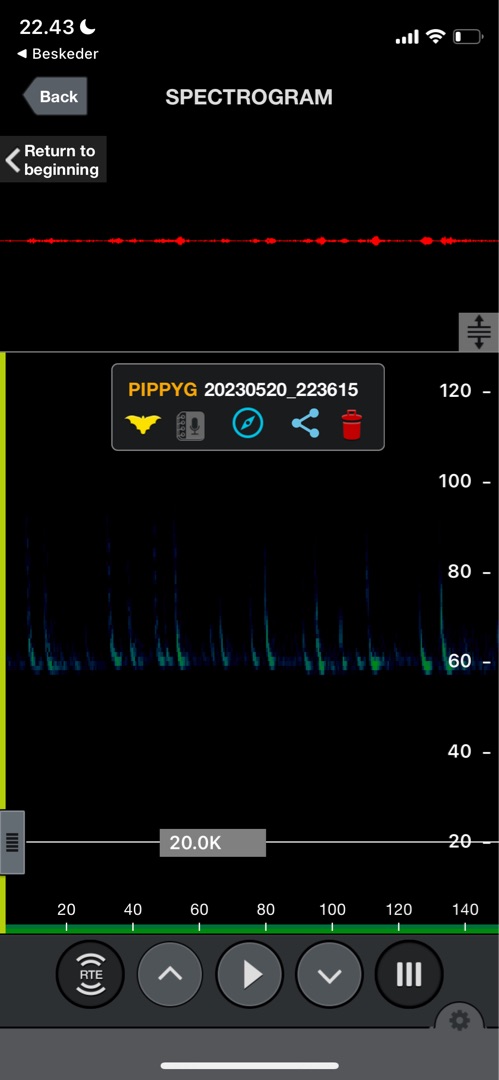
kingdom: Animalia
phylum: Chordata
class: Mammalia
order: Chiroptera
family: Vespertilionidae
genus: Pipistrellus
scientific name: Pipistrellus pygmaeus
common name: Dværgflagermus
